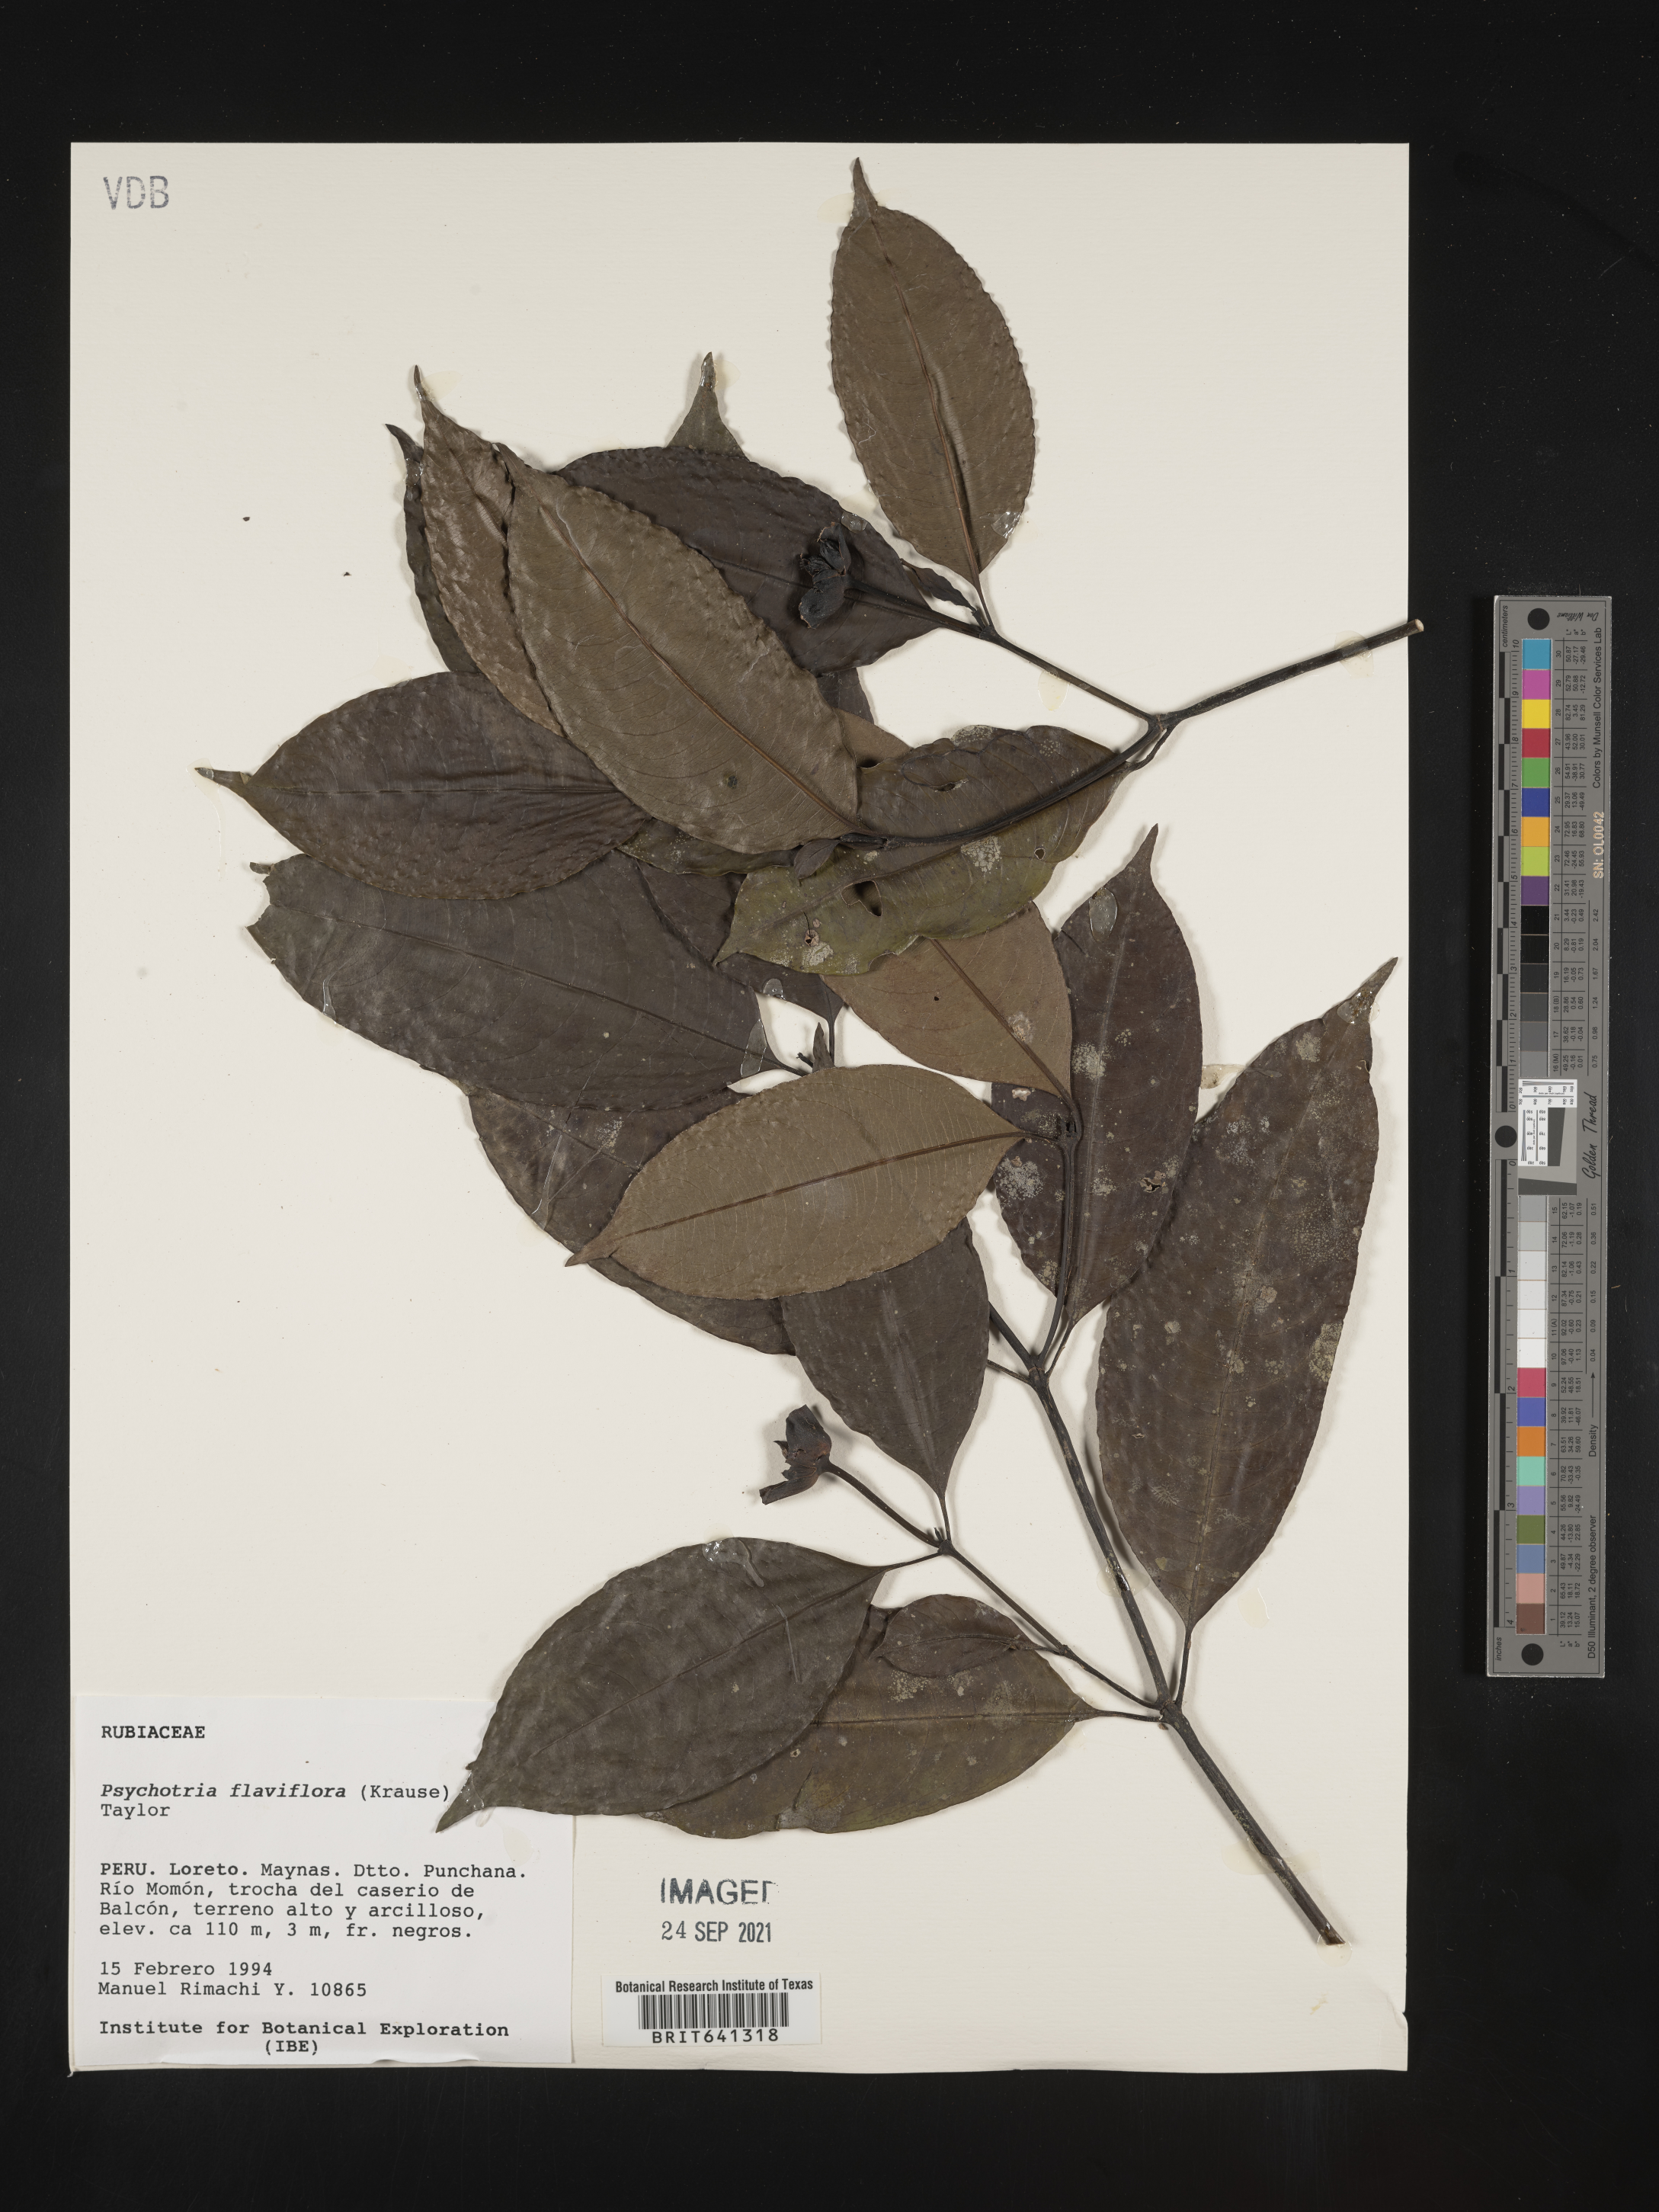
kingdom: Plantae
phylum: Tracheophyta
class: Magnoliopsida
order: Gentianales
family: Rubiaceae
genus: Psychotria
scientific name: Psychotria
